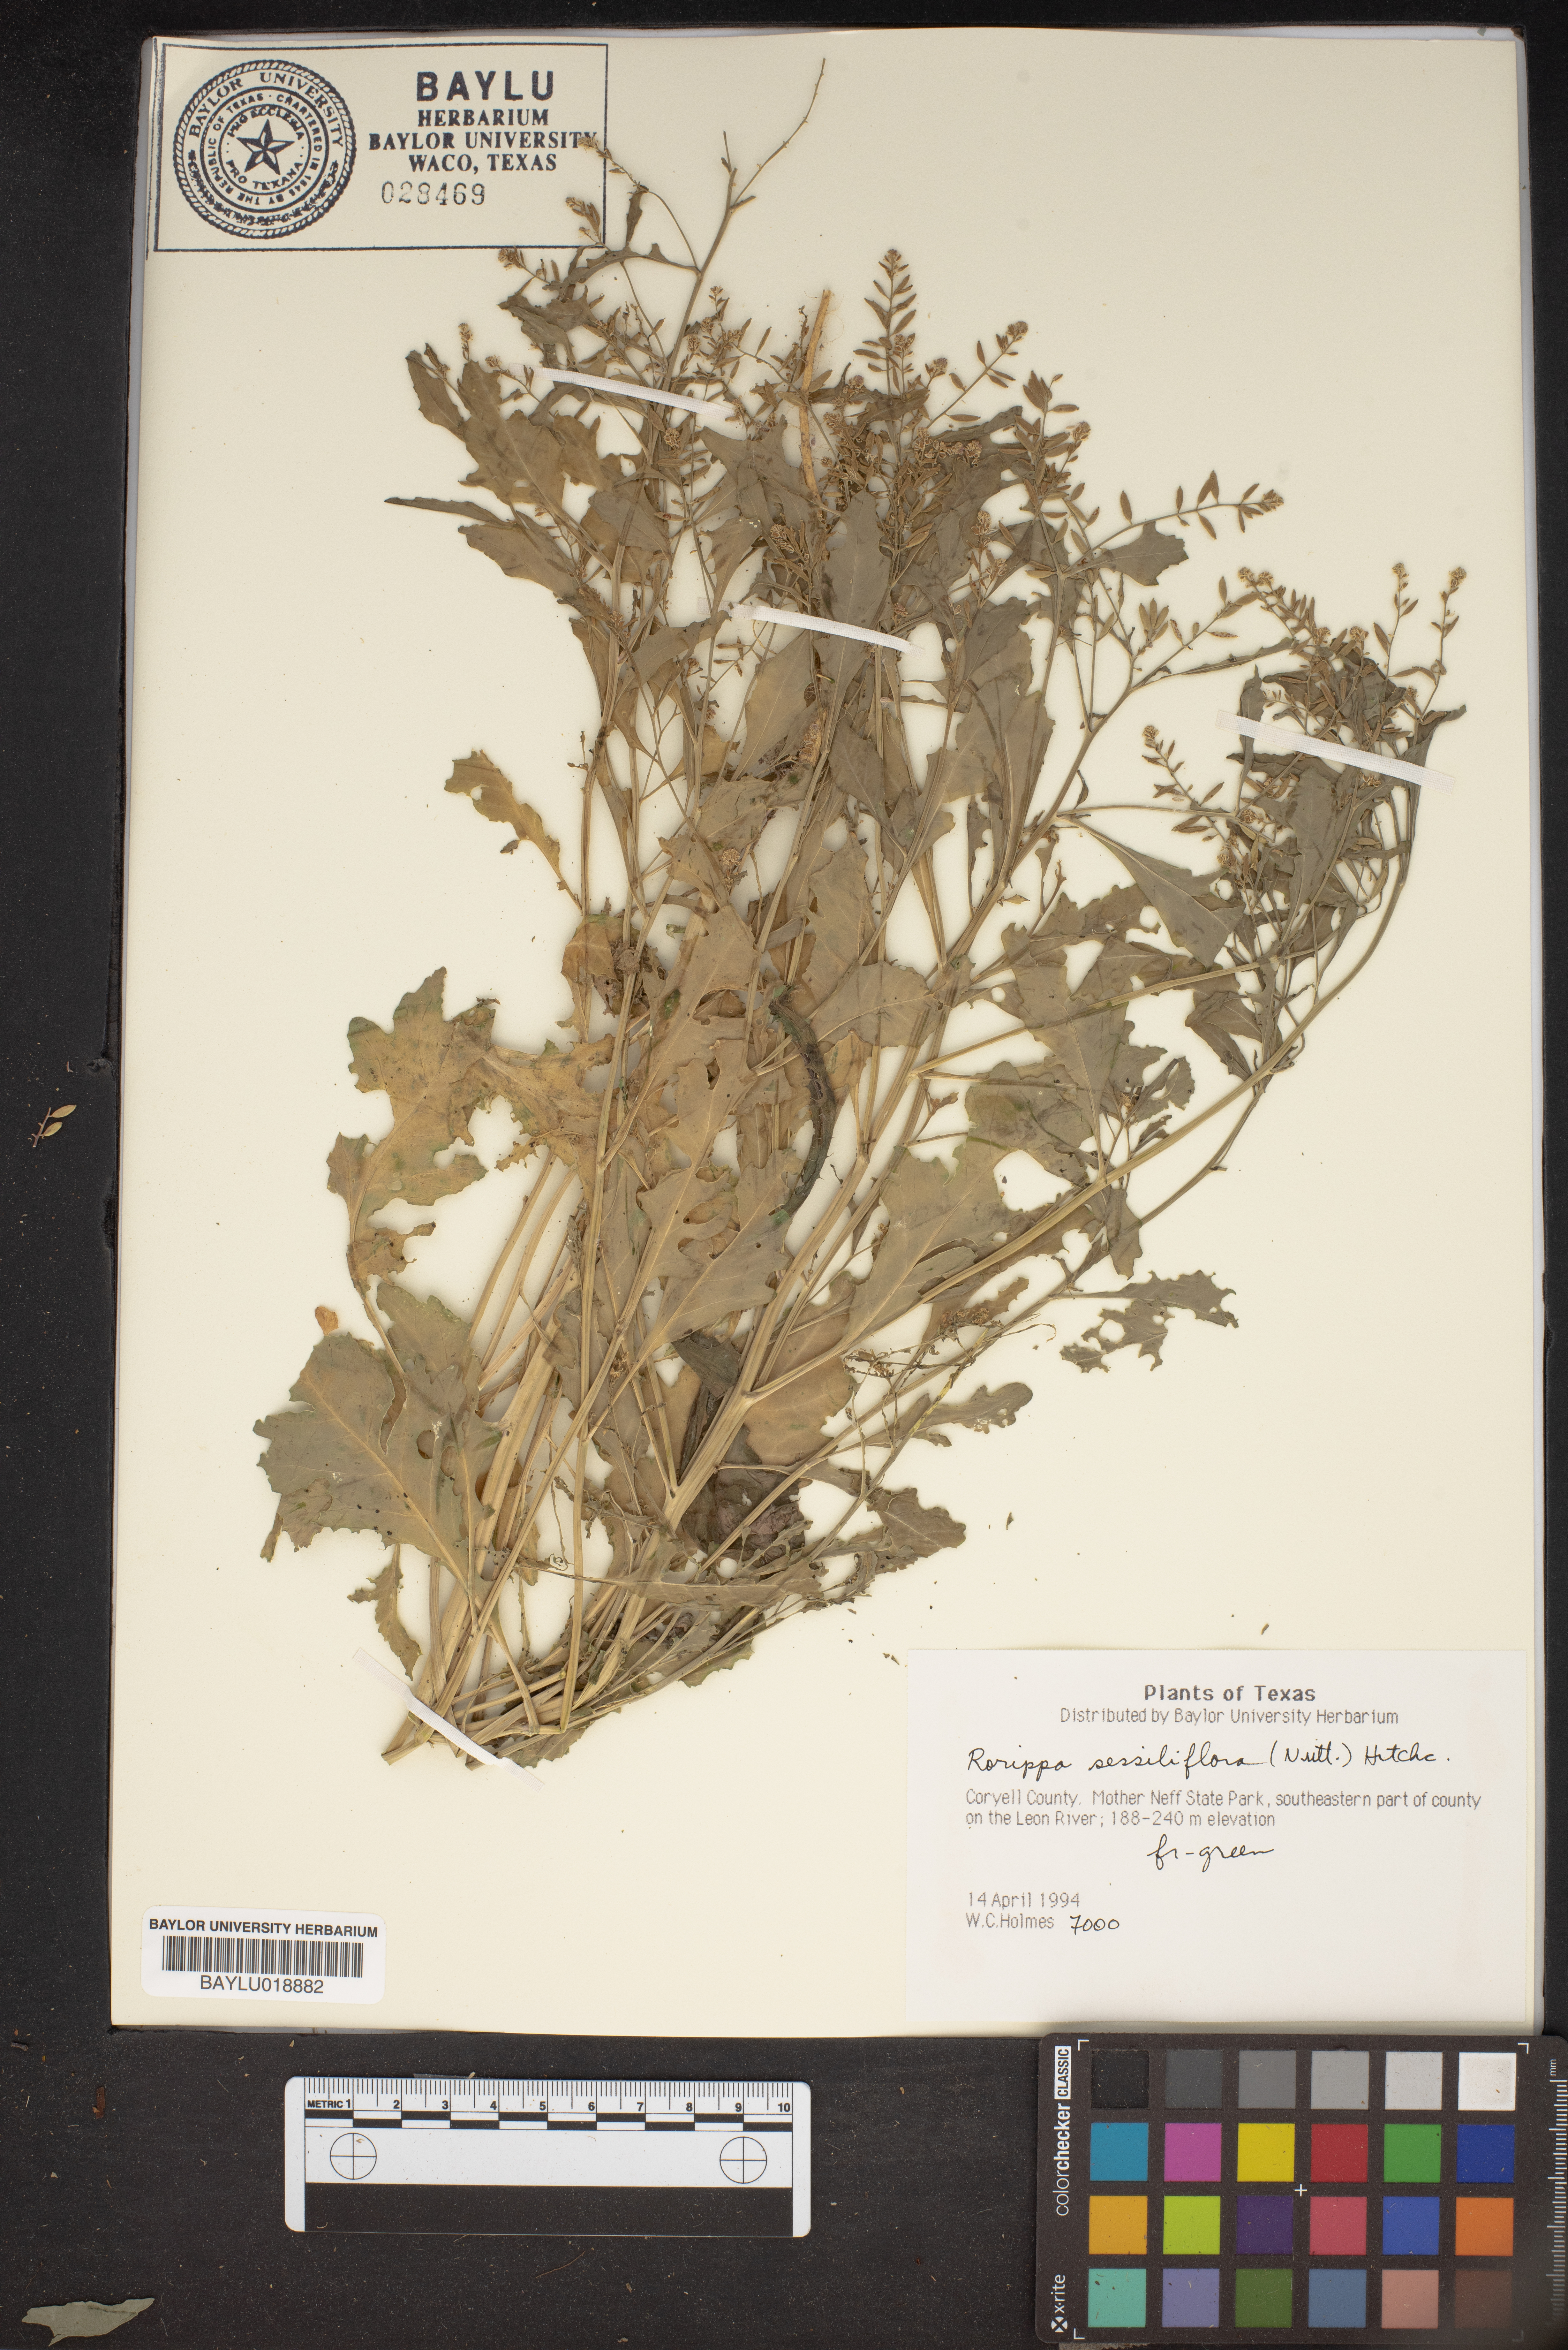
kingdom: Plantae
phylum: Tracheophyta
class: Magnoliopsida
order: Brassicales
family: Brassicaceae
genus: Rorippa
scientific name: Rorippa sessiliflora
